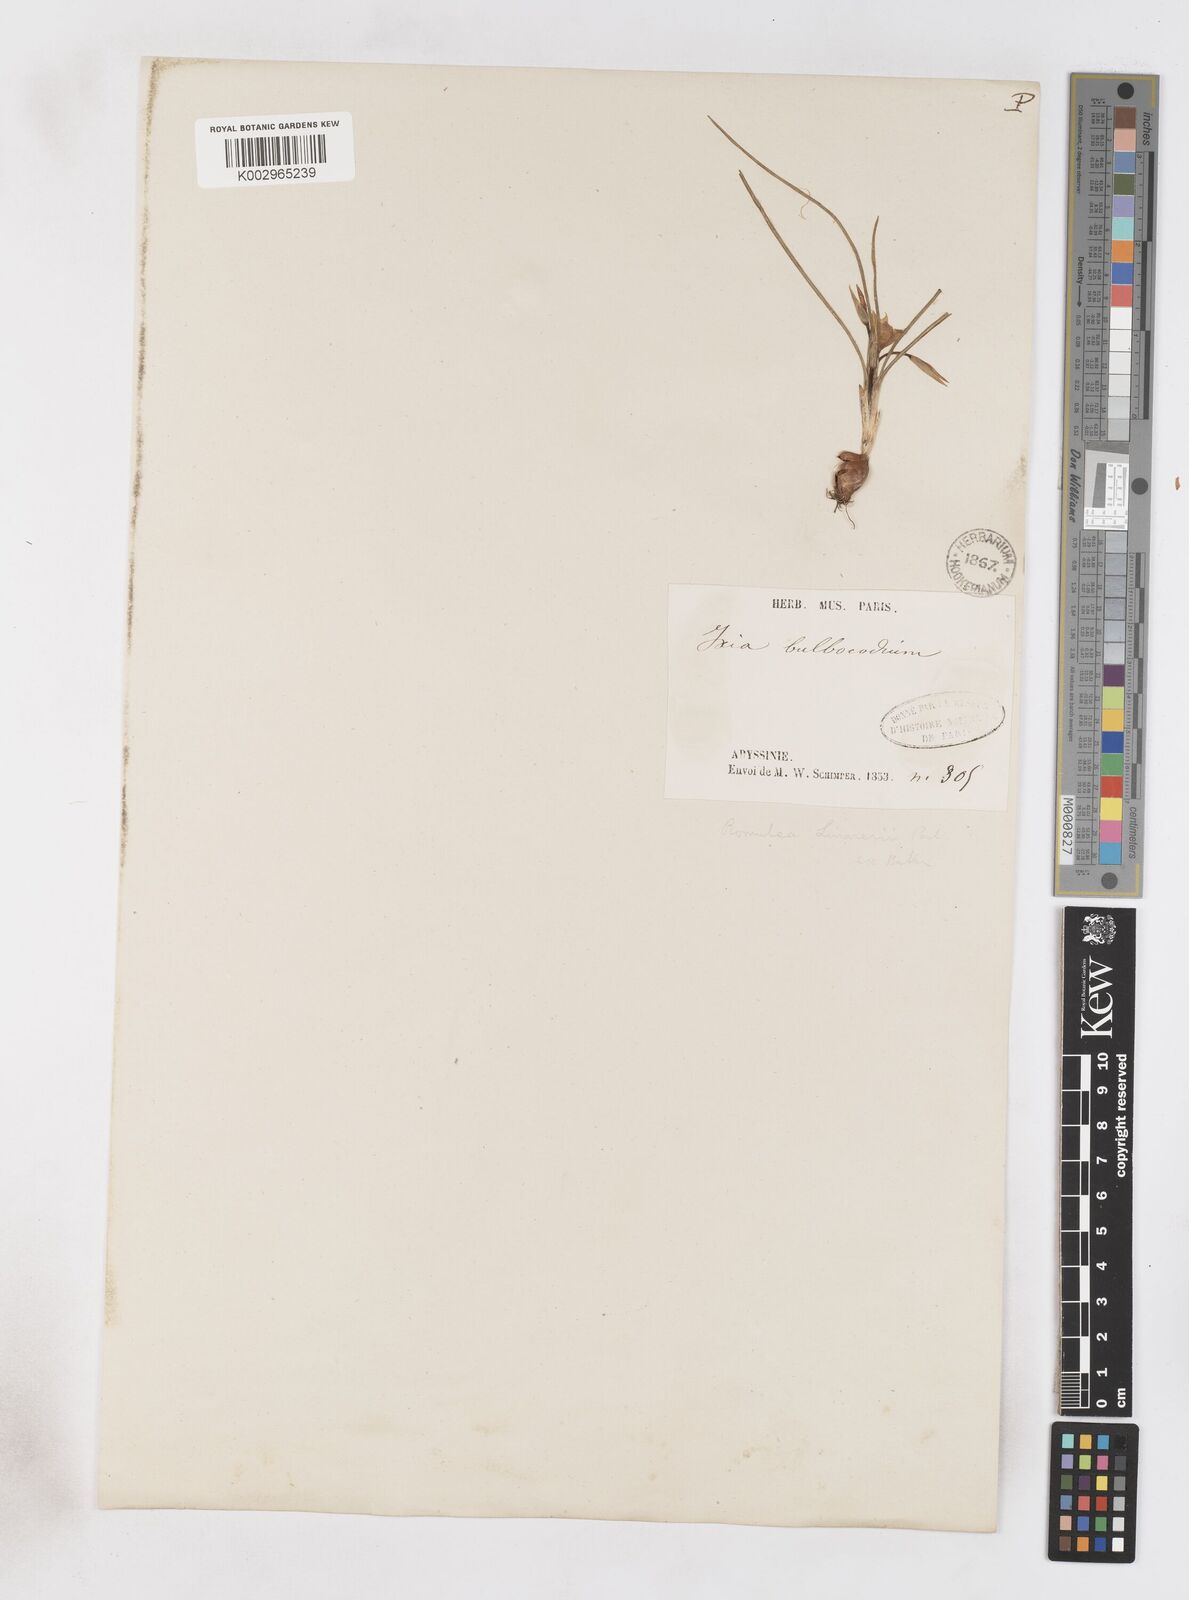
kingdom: Plantae
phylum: Tracheophyta
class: Liliopsida
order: Asparagales
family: Iridaceae
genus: Romulea
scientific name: Romulea fischeri
